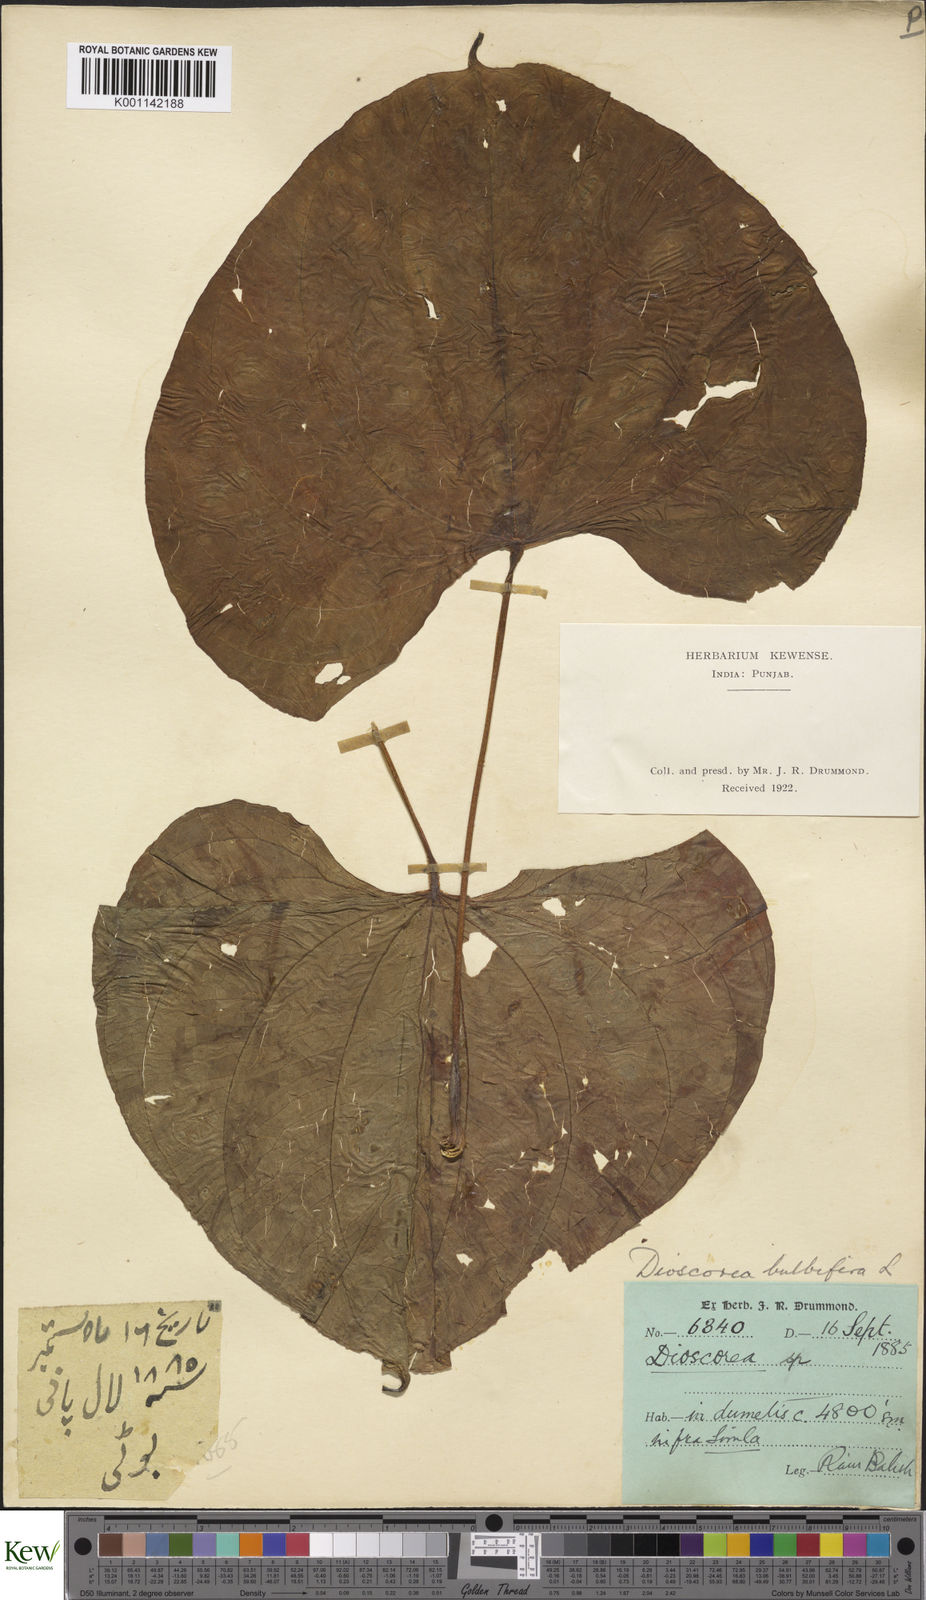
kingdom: Plantae
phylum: Tracheophyta
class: Liliopsida
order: Dioscoreales
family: Dioscoreaceae
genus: Dioscorea
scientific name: Dioscorea bulbifera
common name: Air yam
